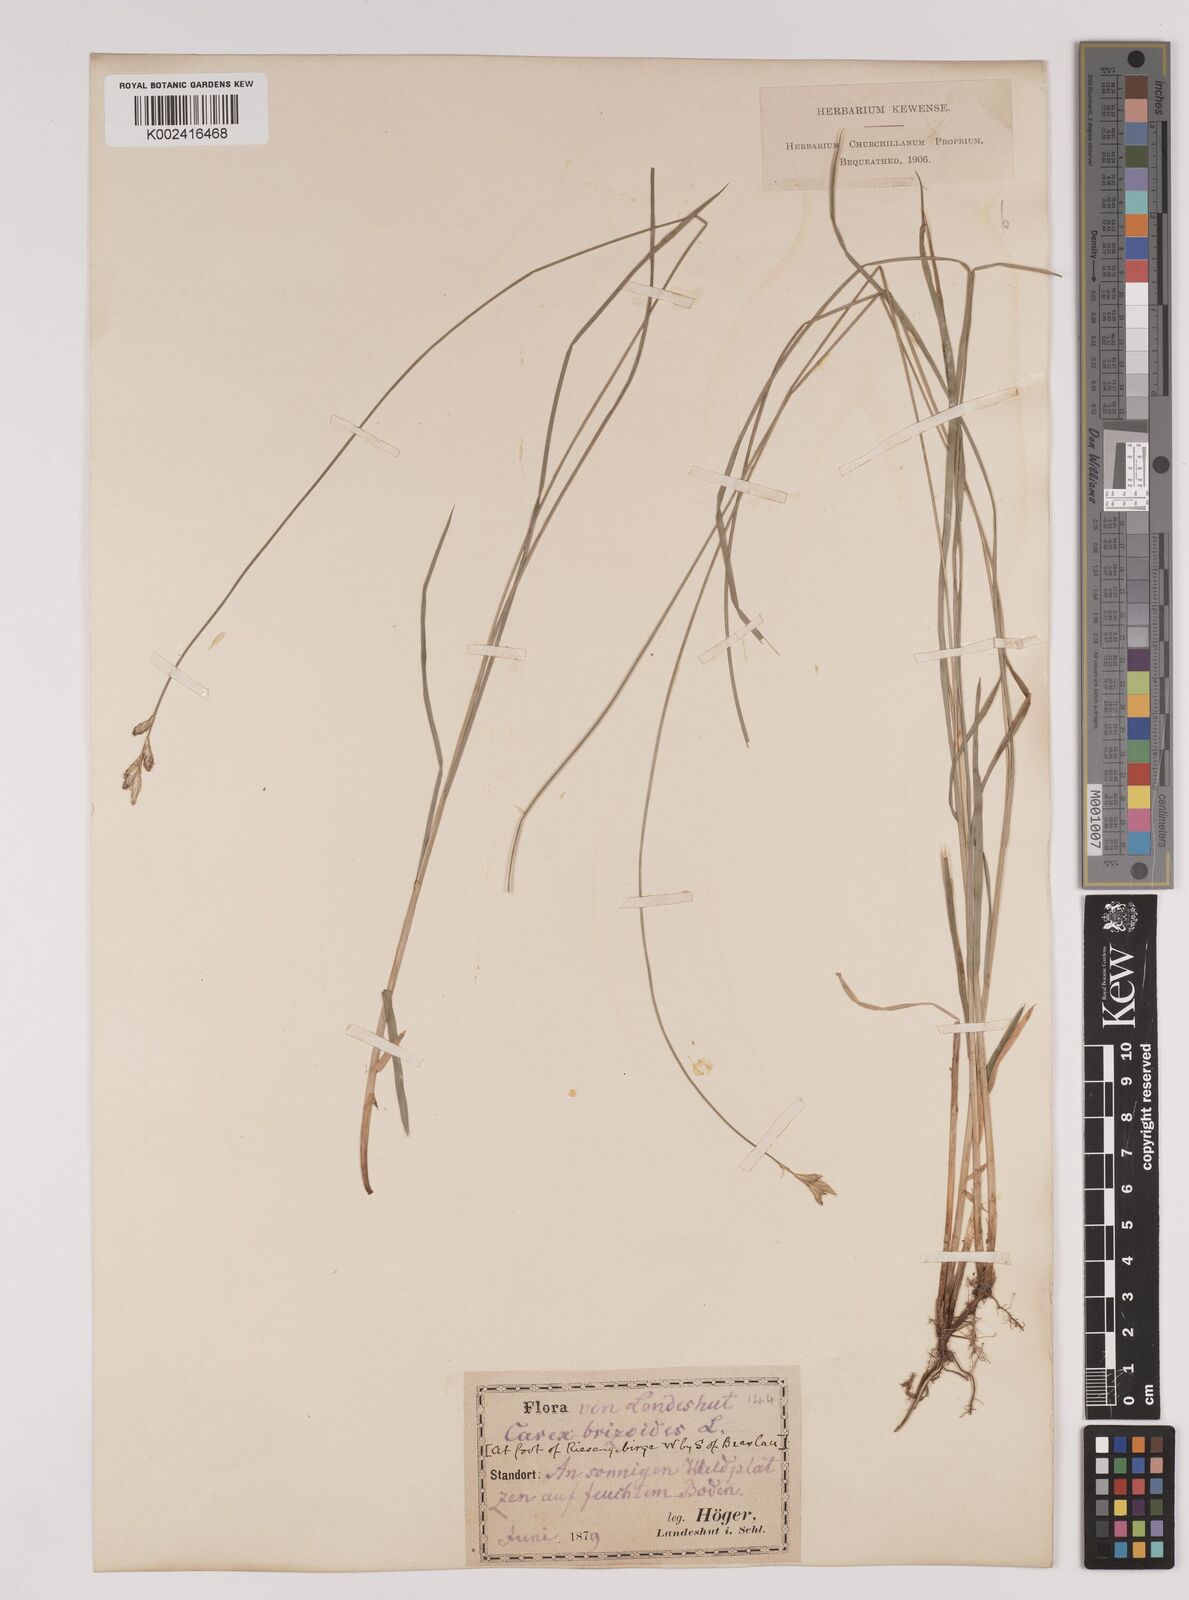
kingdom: Plantae
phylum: Tracheophyta
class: Liliopsida
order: Poales
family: Cyperaceae
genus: Carex
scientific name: Carex brizoides
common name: Quaking-grass sedge
